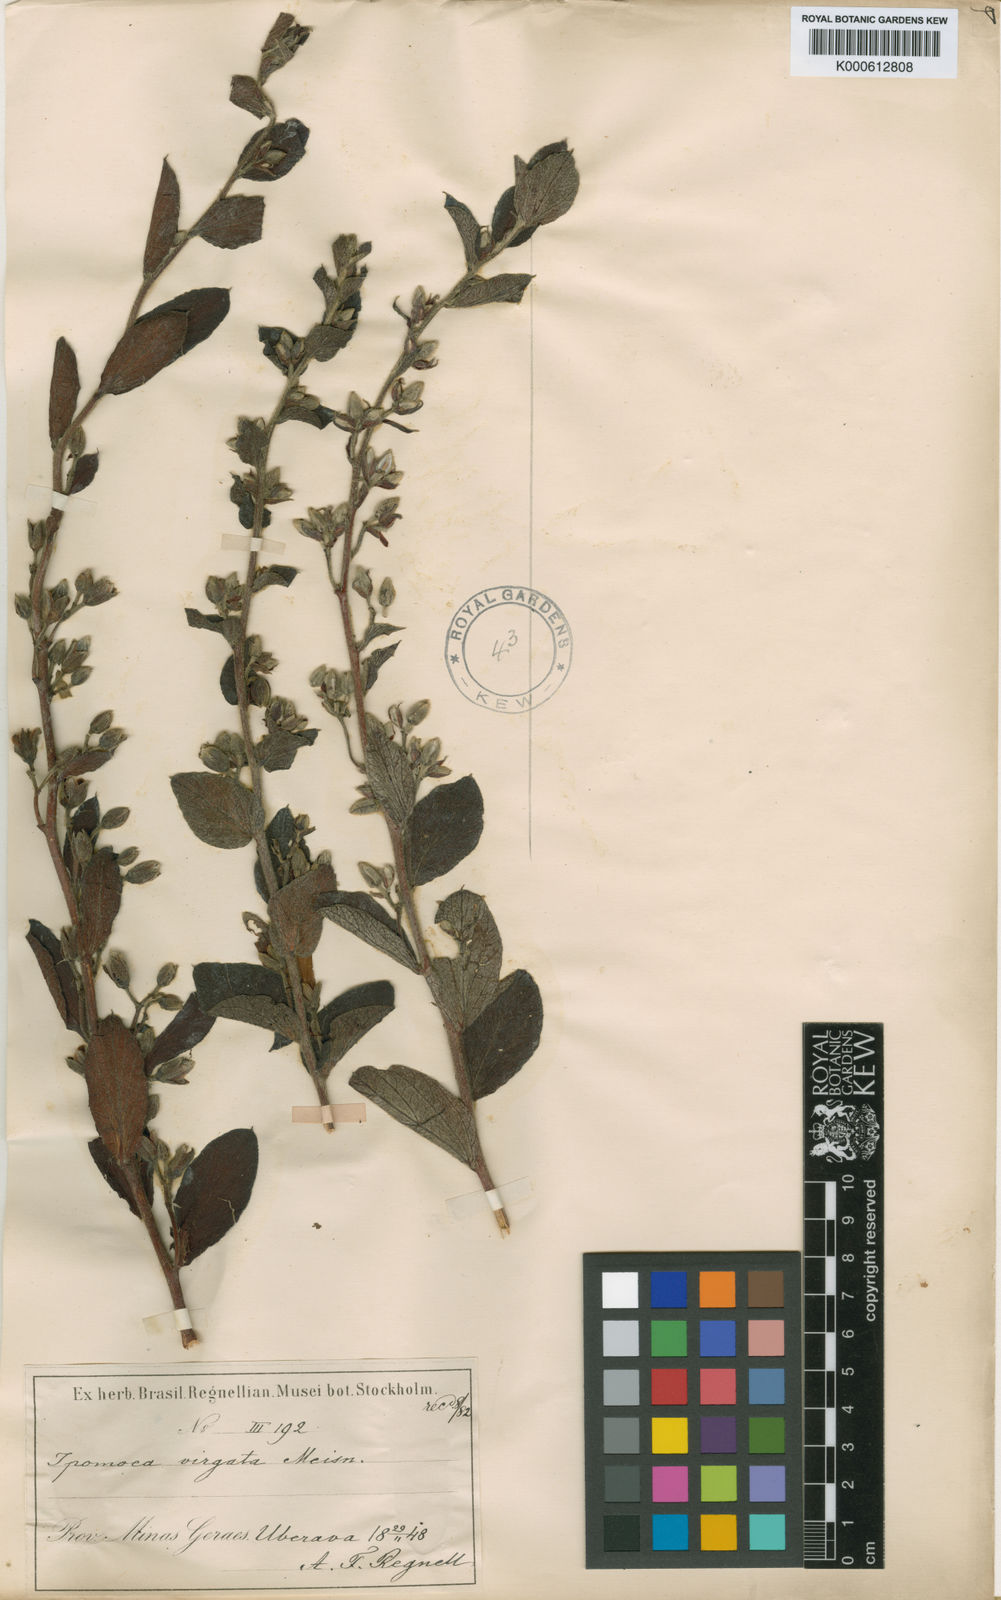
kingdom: Plantae
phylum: Tracheophyta
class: Magnoliopsida
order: Solanales
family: Convolvulaceae
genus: Ipomoea
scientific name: Ipomoea virgata
